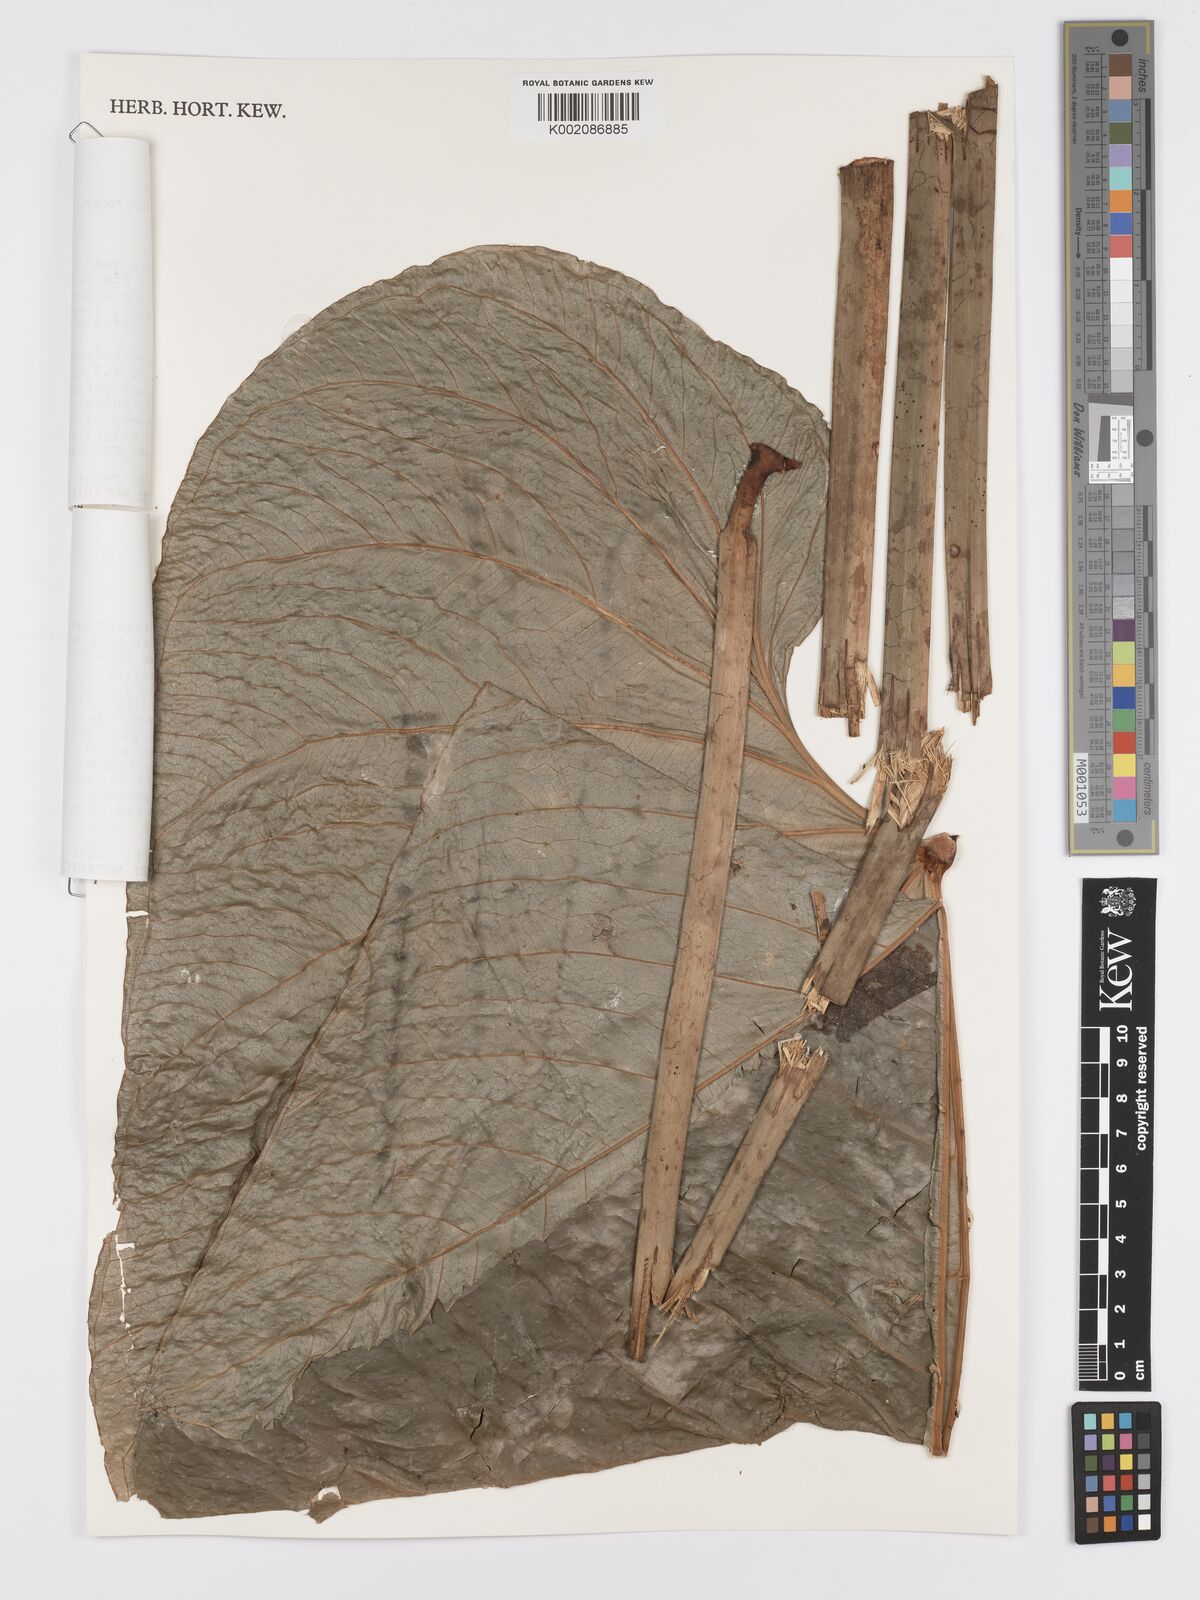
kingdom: Plantae
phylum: Tracheophyta
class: Liliopsida
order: Alismatales
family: Araceae
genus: Anthurium
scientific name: Anthurium ravenii
